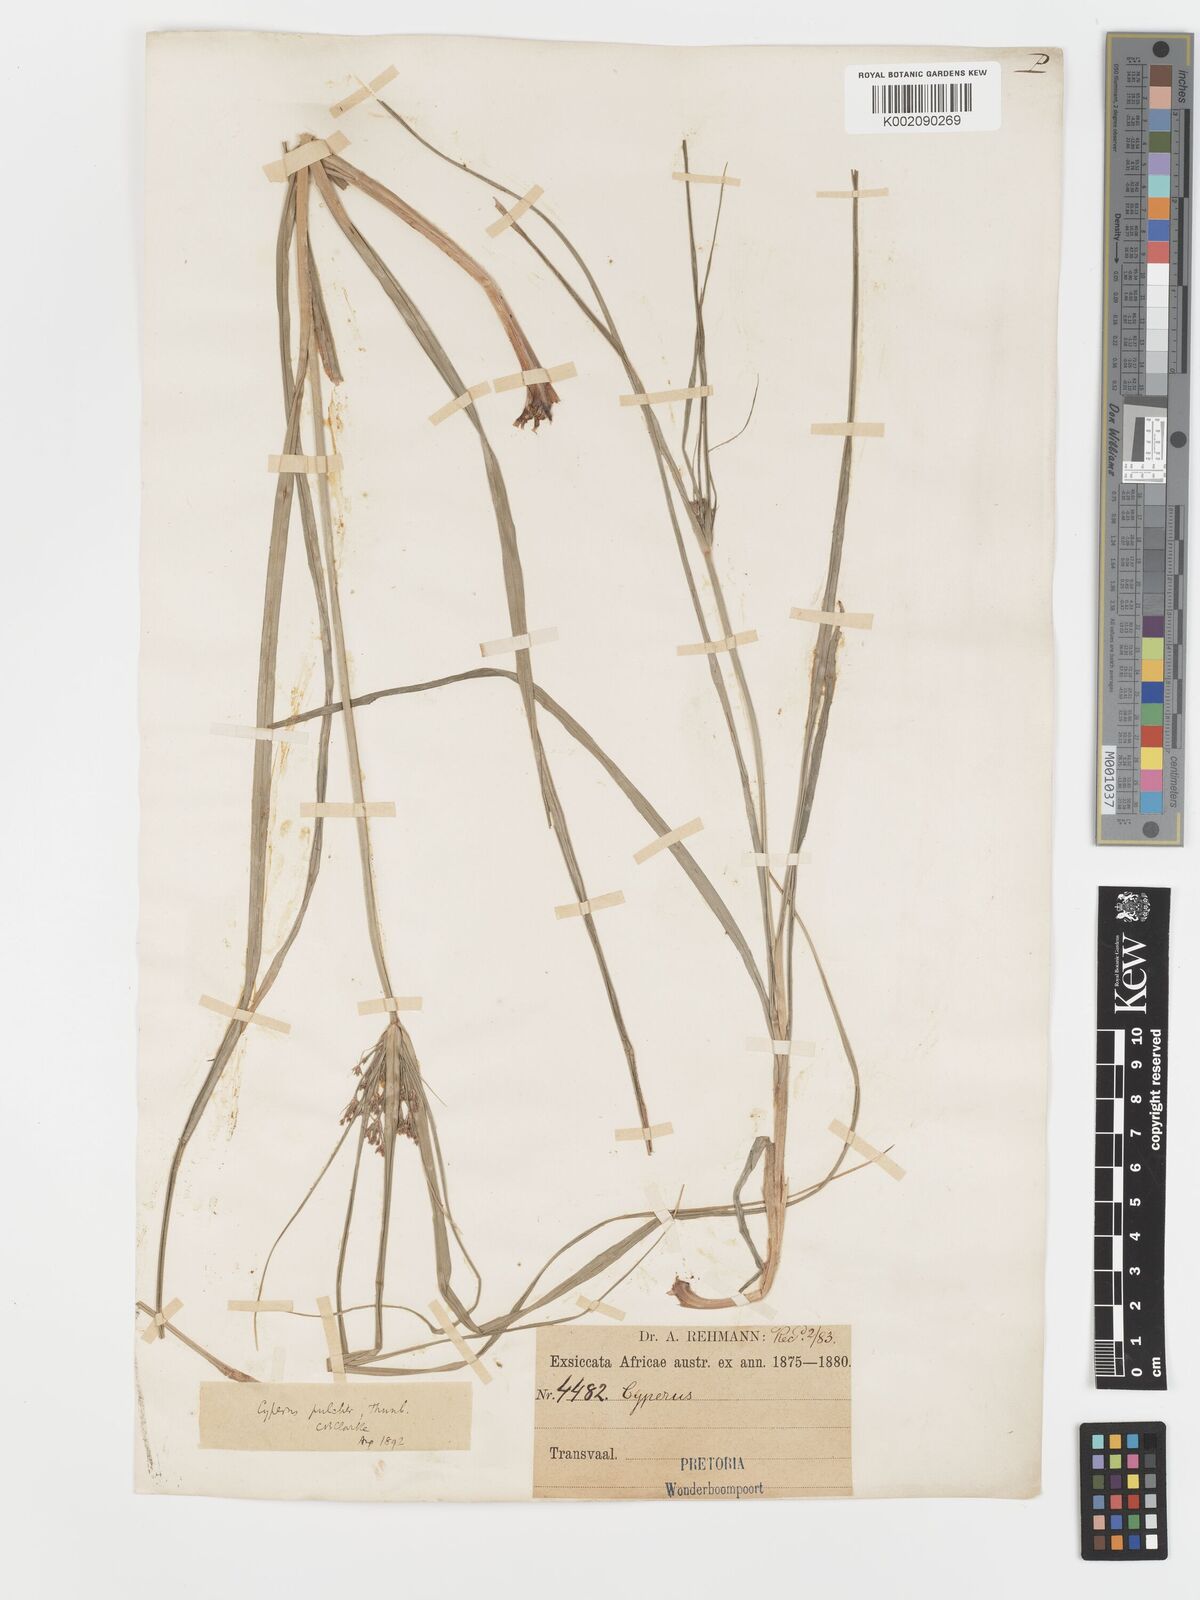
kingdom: Plantae
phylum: Tracheophyta
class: Liliopsida
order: Poales
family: Cyperaceae
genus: Cyperus
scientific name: Cyperus pulcher
